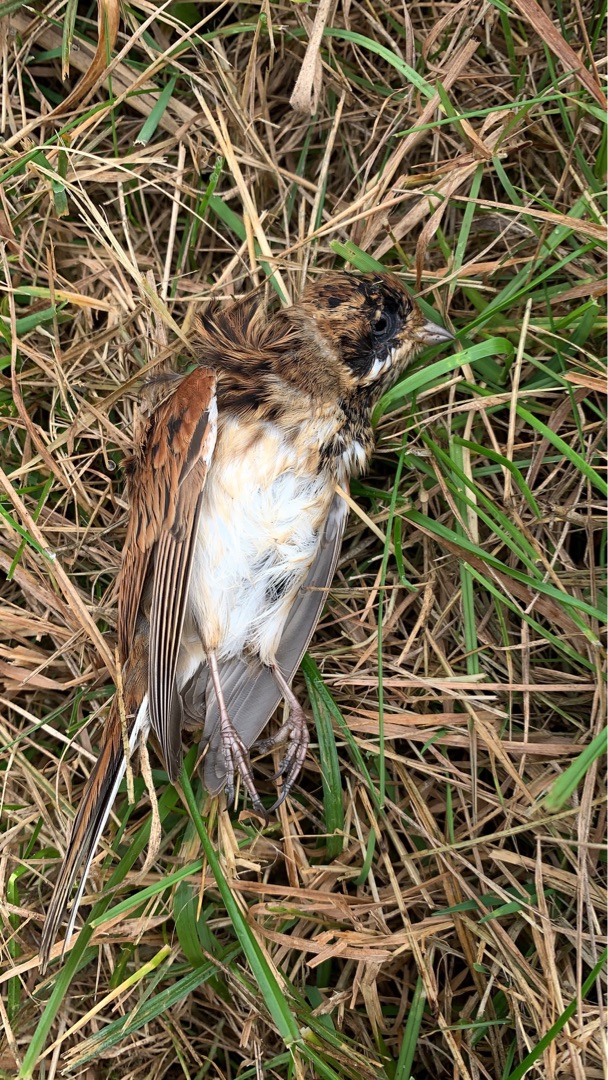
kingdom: Animalia
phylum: Chordata
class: Aves
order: Passeriformes
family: Emberizidae
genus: Emberiza
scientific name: Emberiza schoeniclus
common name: Rørspurv
